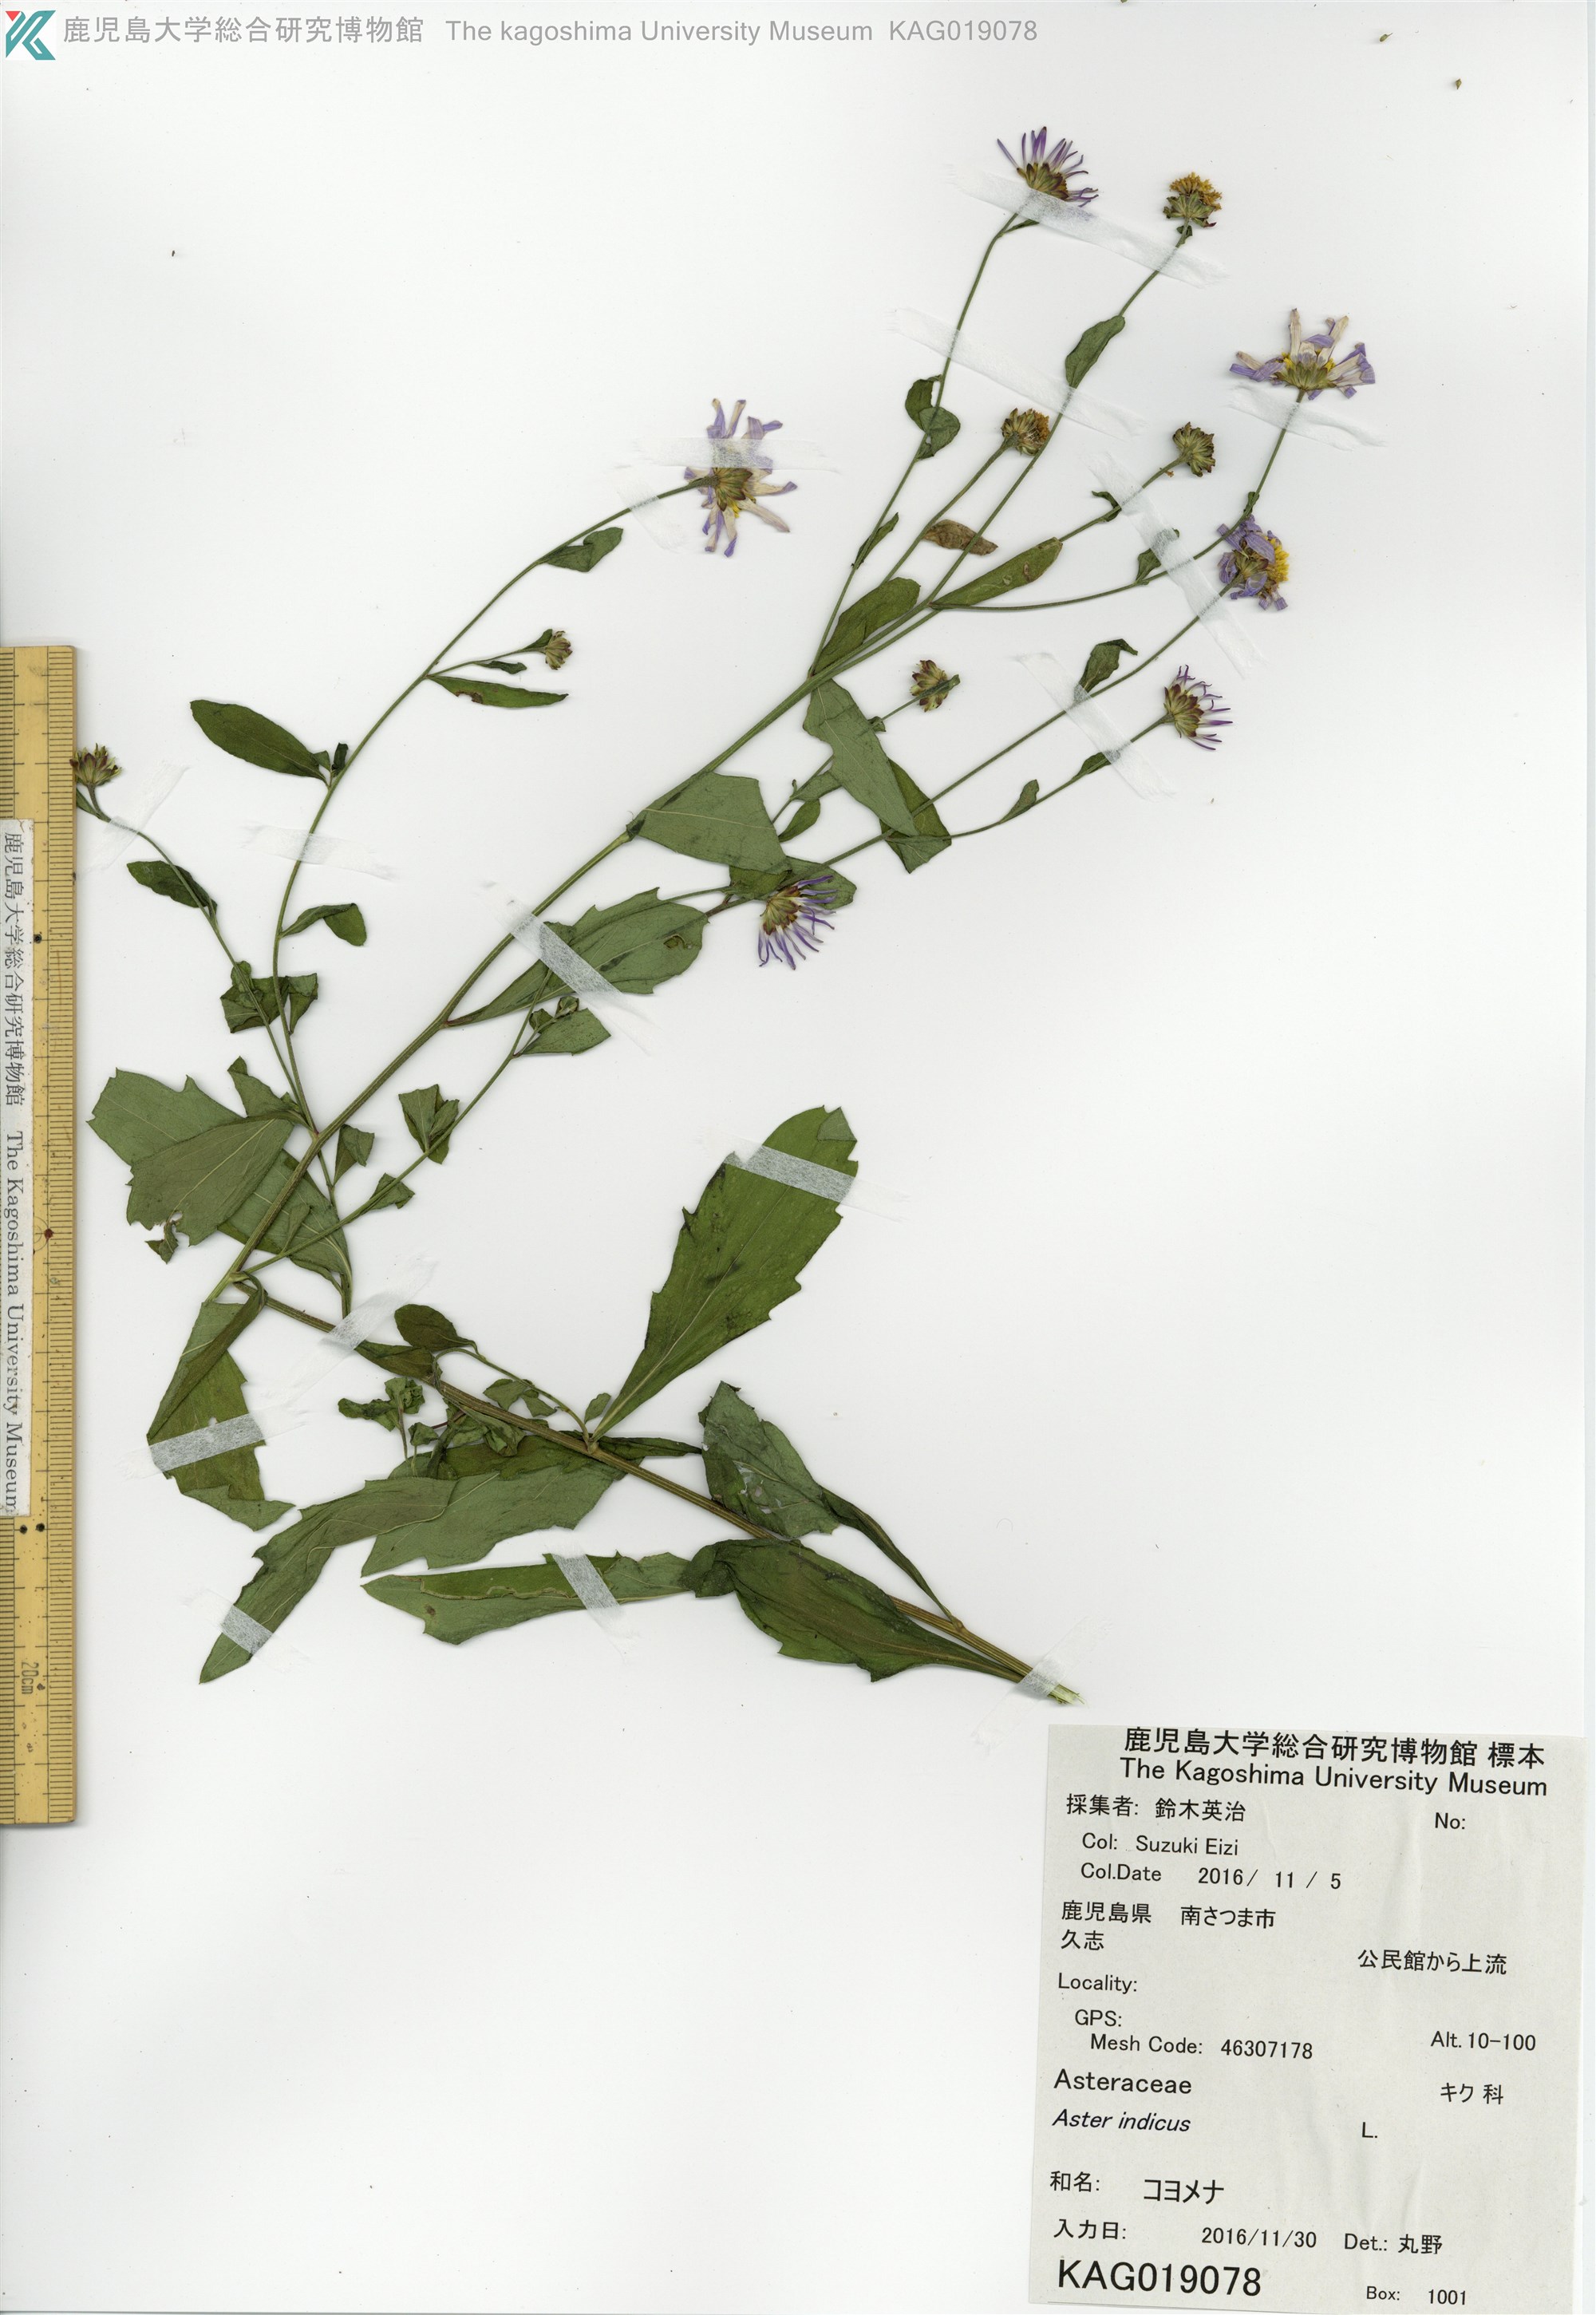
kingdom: Plantae
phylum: Tracheophyta
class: Magnoliopsida
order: Asterales
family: Asteraceae
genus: Kalimeris
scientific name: Kalimeris indica
